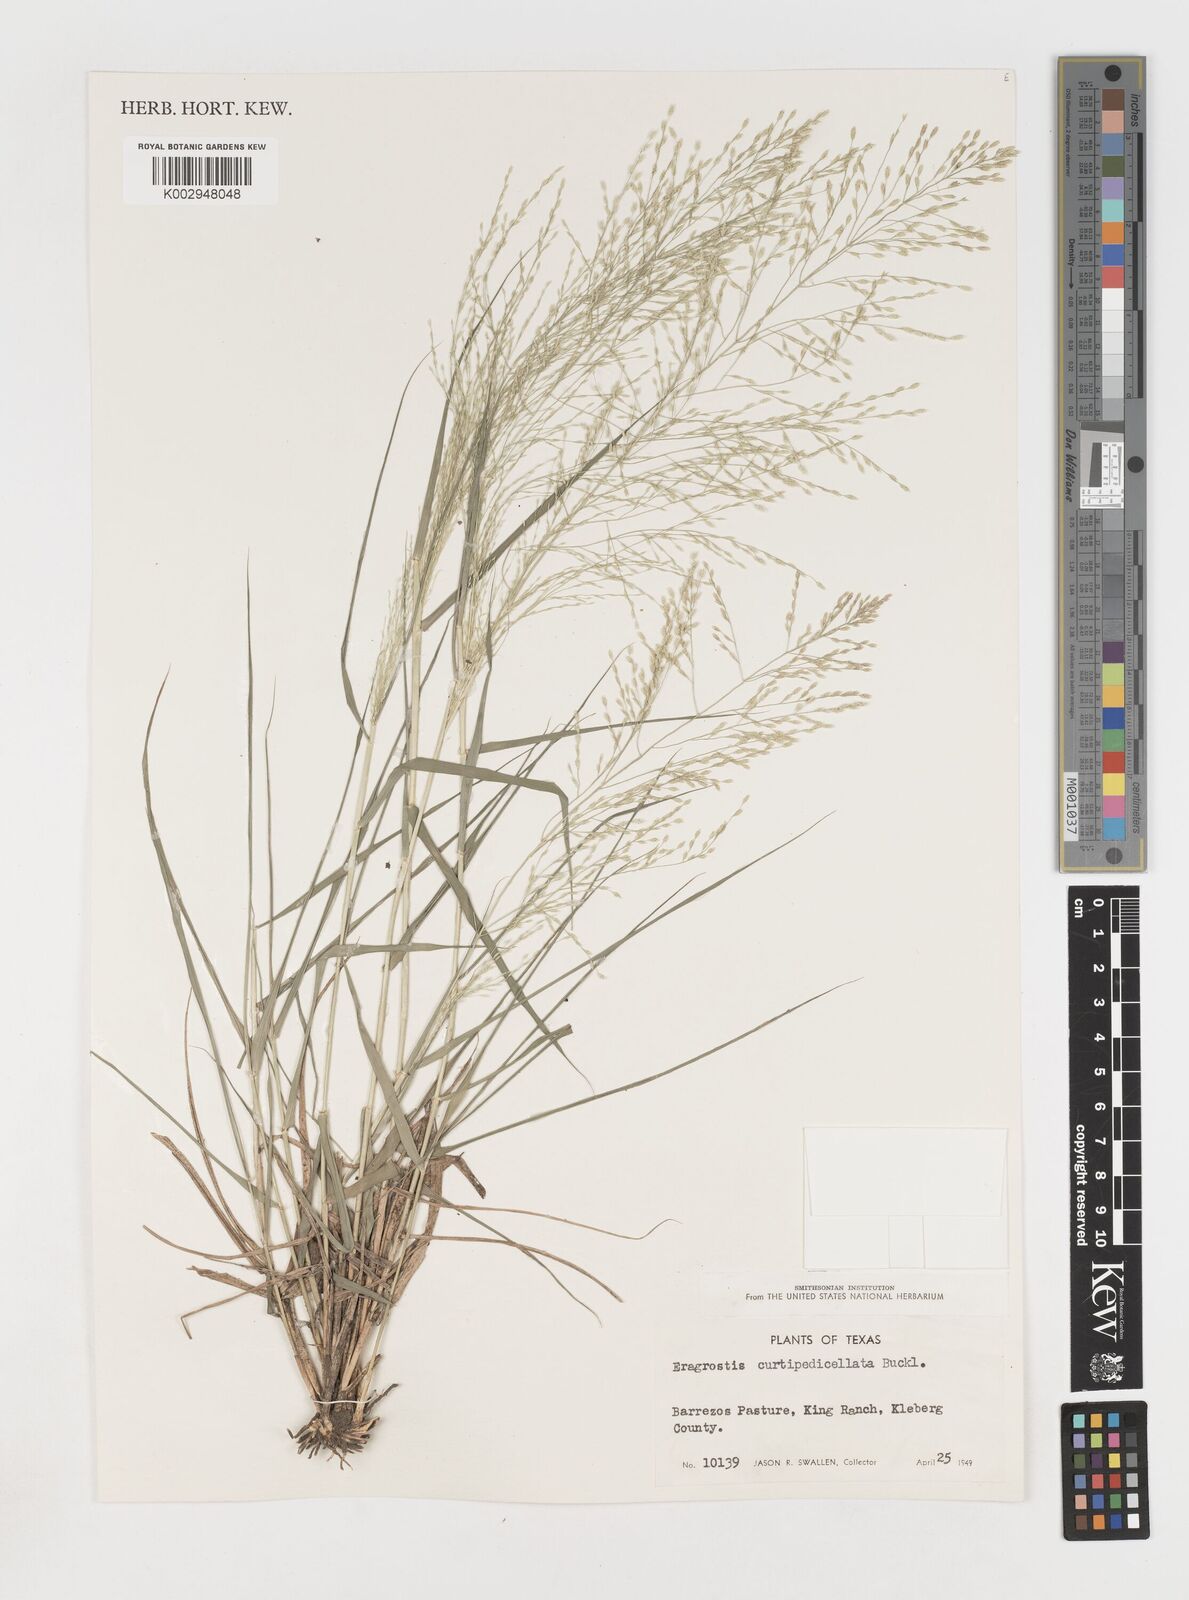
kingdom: Plantae
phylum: Tracheophyta
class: Liliopsida
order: Poales
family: Poaceae
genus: Eragrostis
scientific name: Eragrostis curtipedicellata
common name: Gummy love grass
